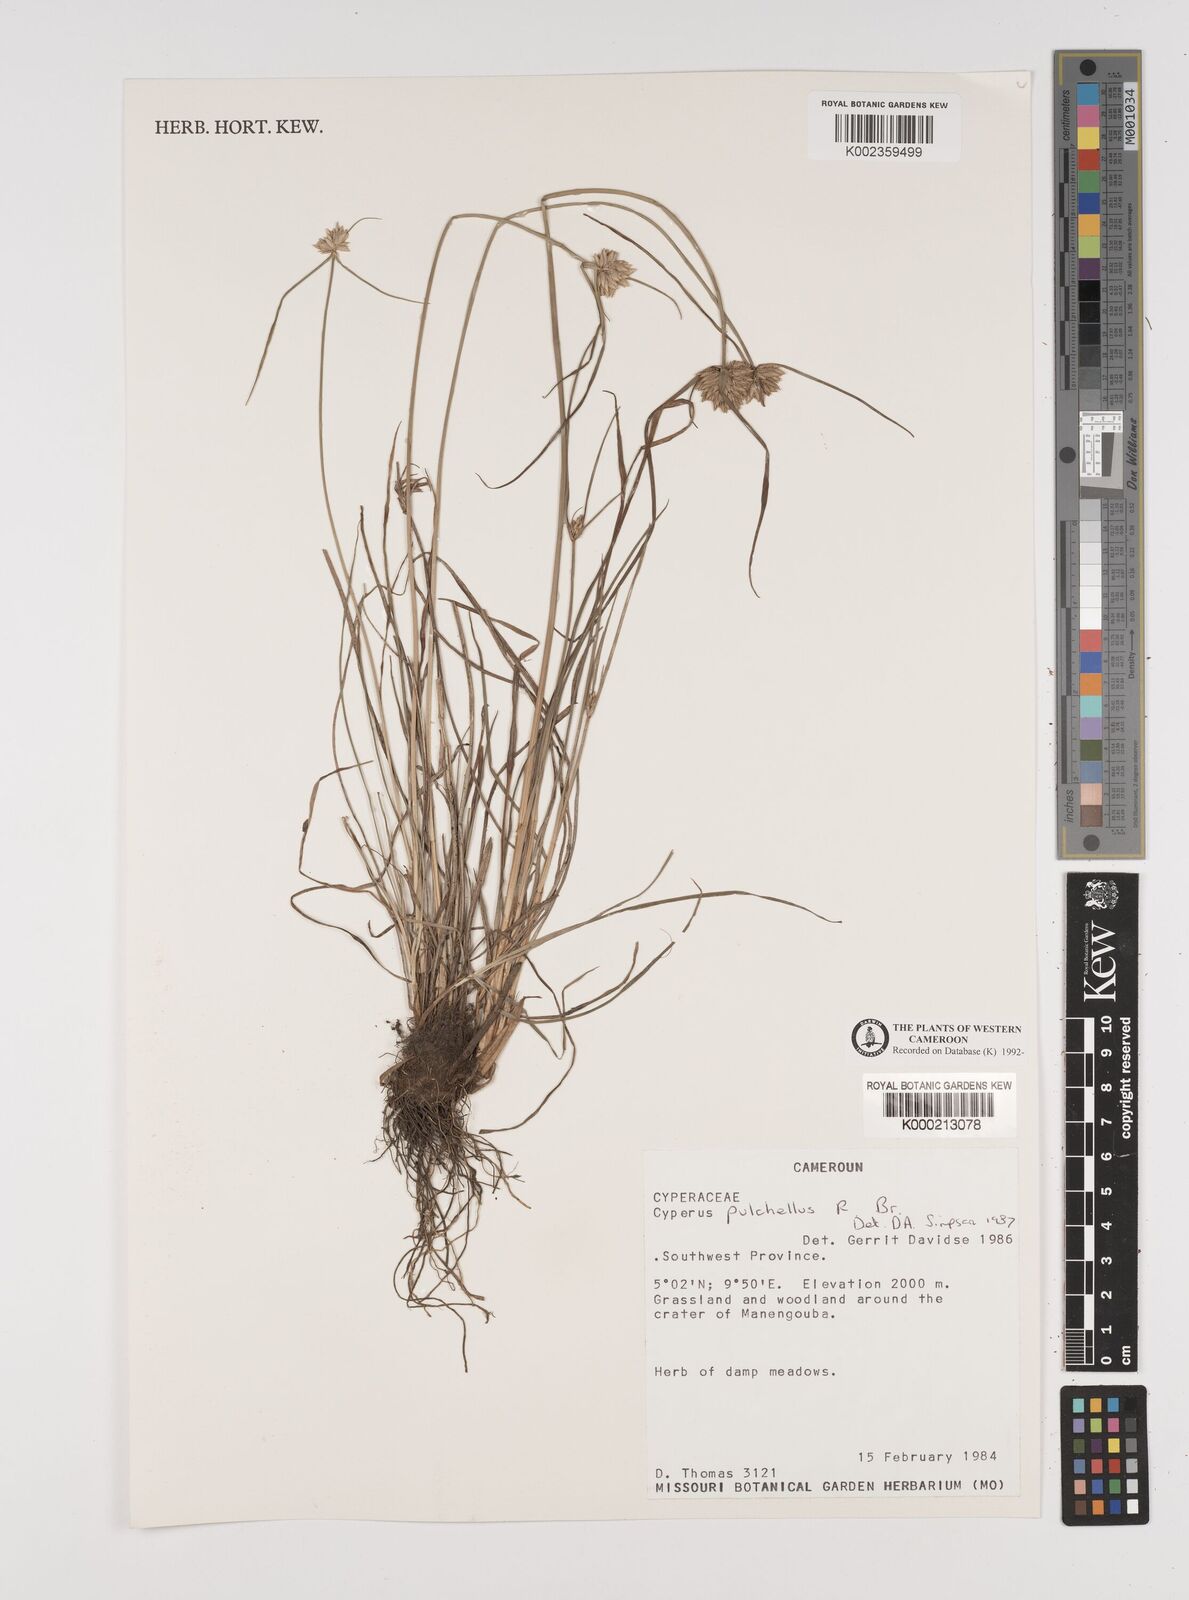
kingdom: Plantae
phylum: Tracheophyta
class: Liliopsida
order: Poales
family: Cyperaceae
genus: Cyperus
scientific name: Cyperus pulchellus
